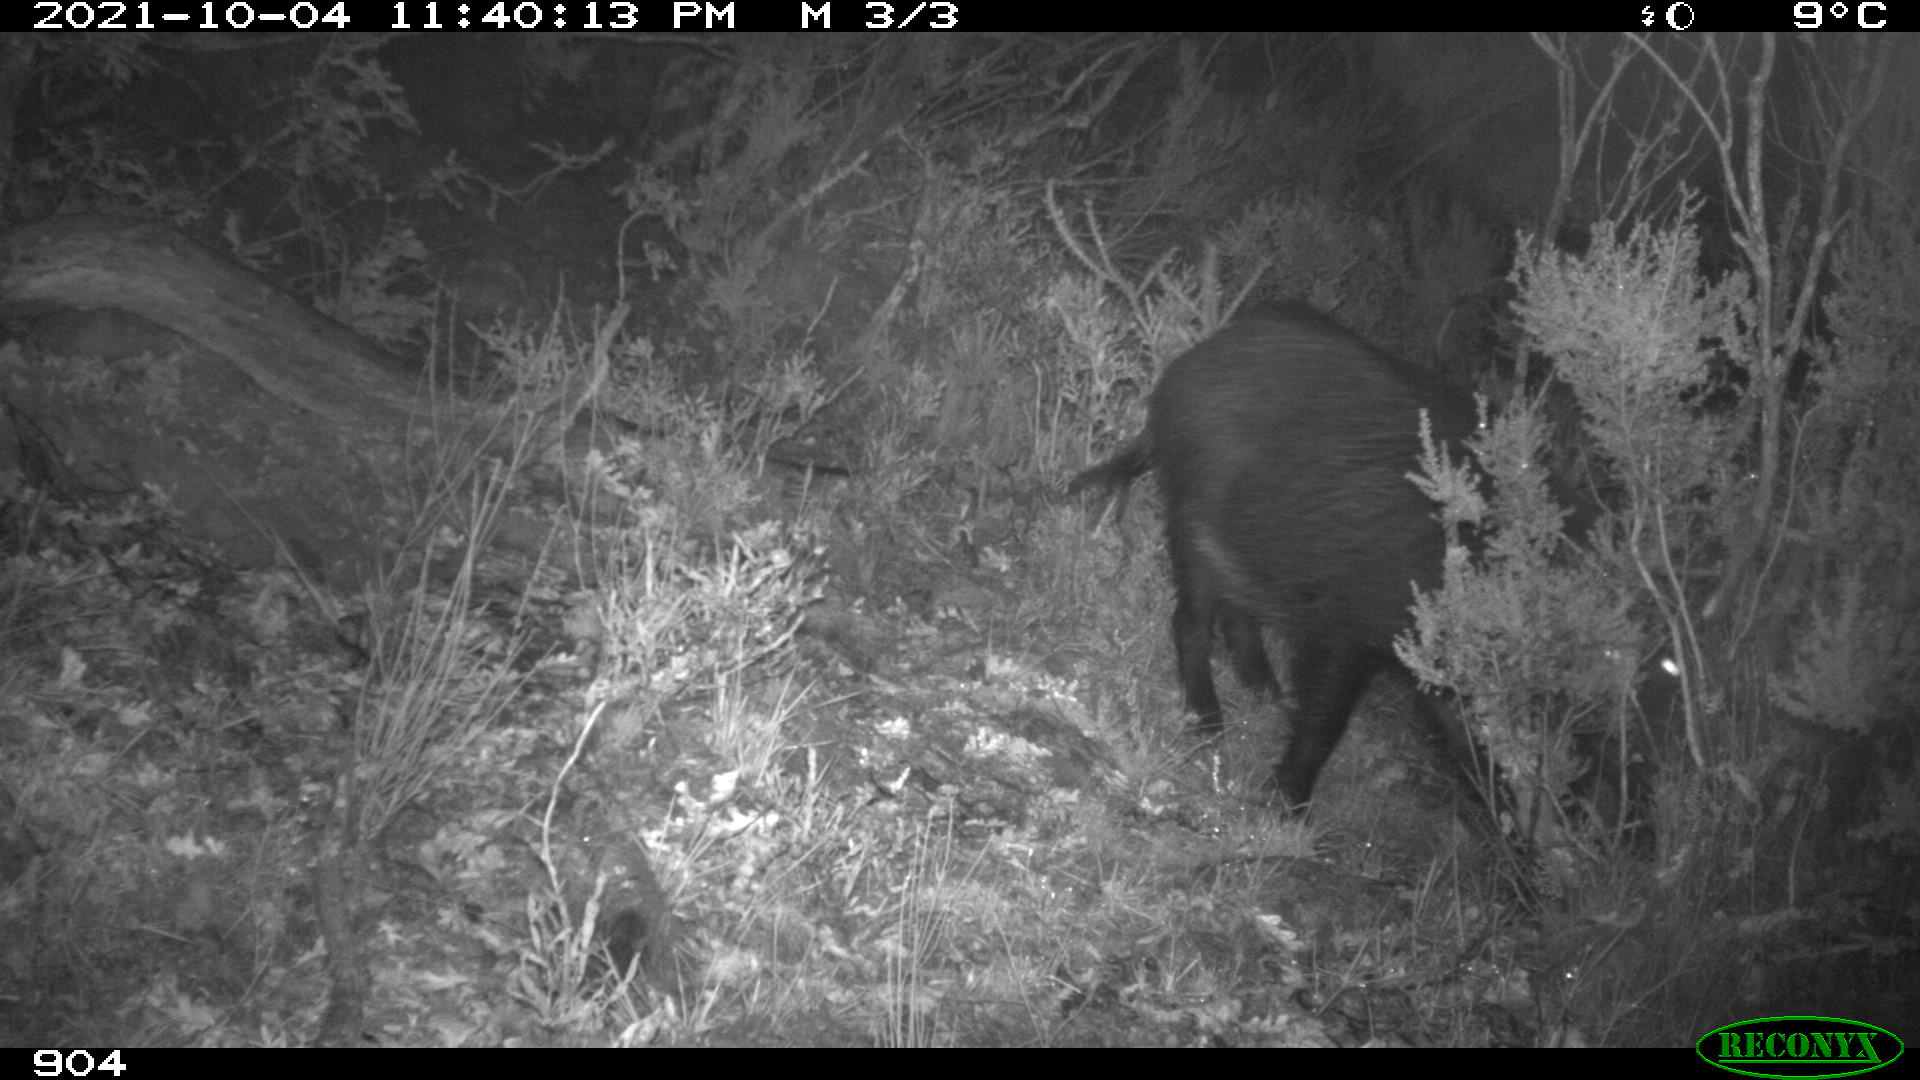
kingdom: Animalia
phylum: Chordata
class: Mammalia
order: Artiodactyla
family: Suidae
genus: Sus
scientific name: Sus scrofa
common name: Wild boar
